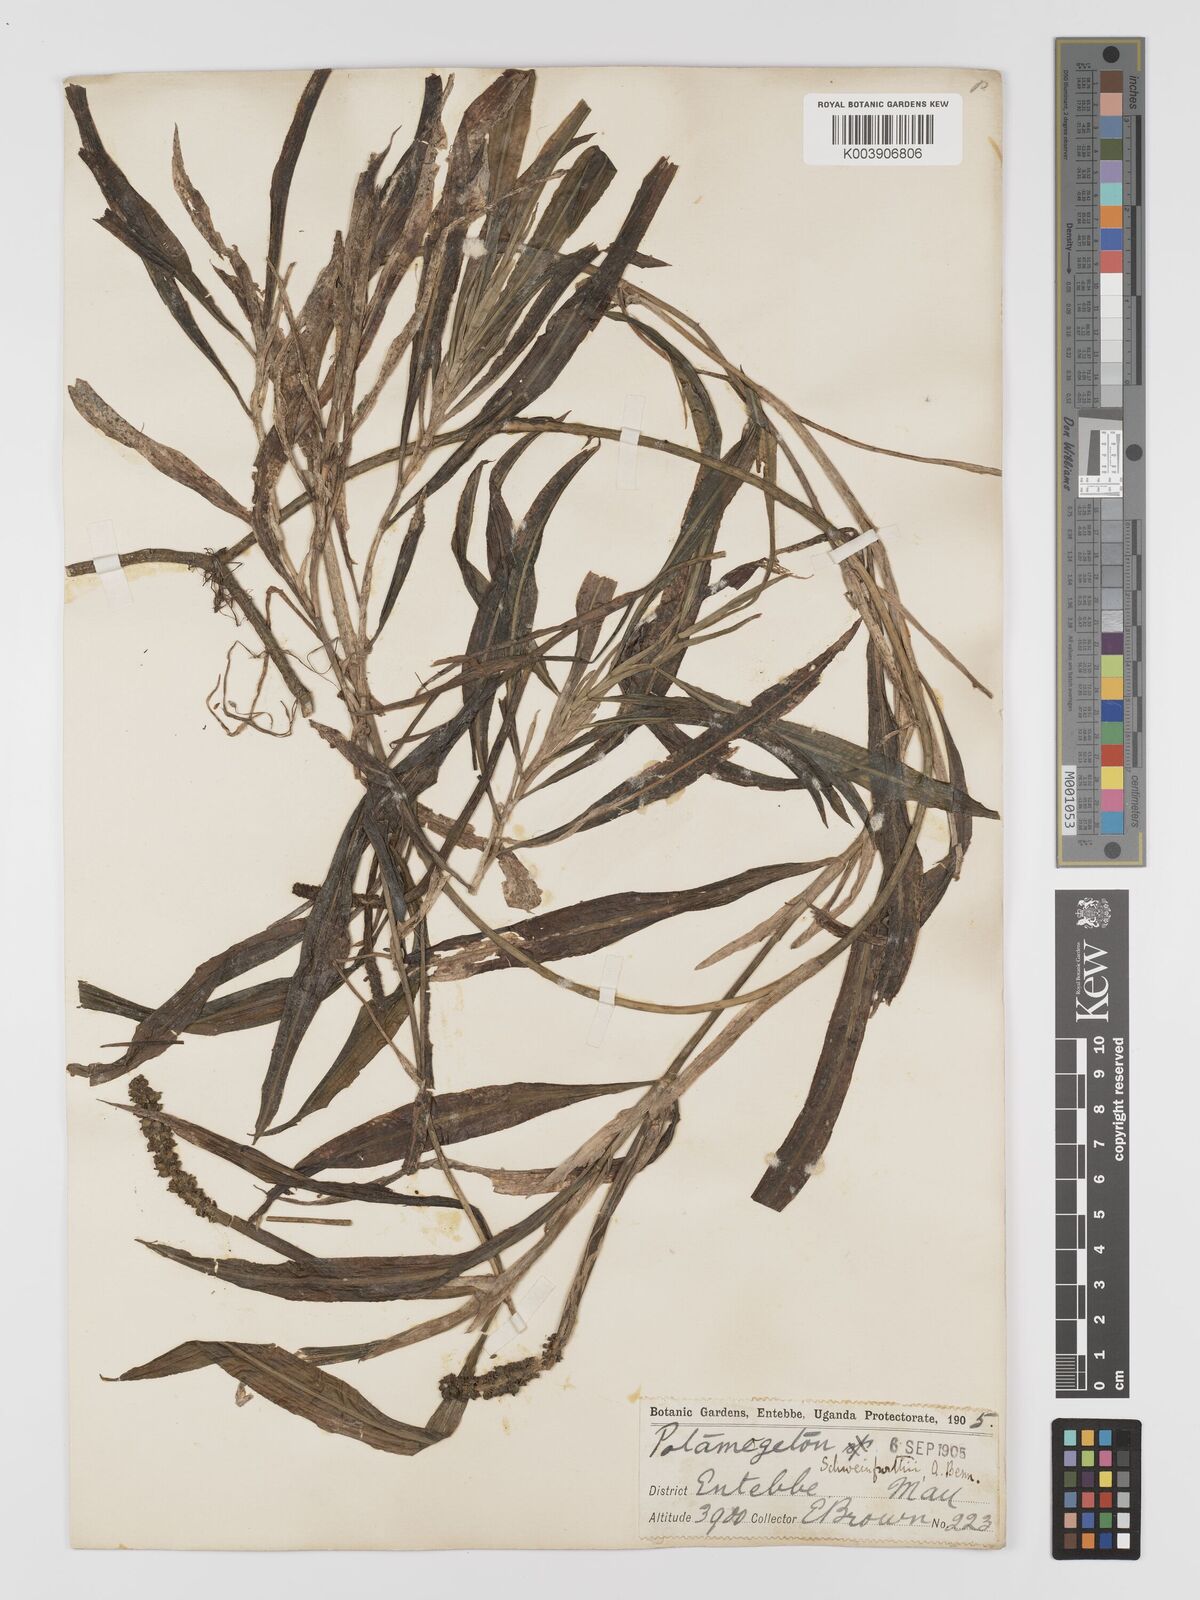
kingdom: Plantae
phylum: Tracheophyta
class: Liliopsida
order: Alismatales
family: Potamogetonaceae
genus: Potamogeton
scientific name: Potamogeton schweinfurthii
